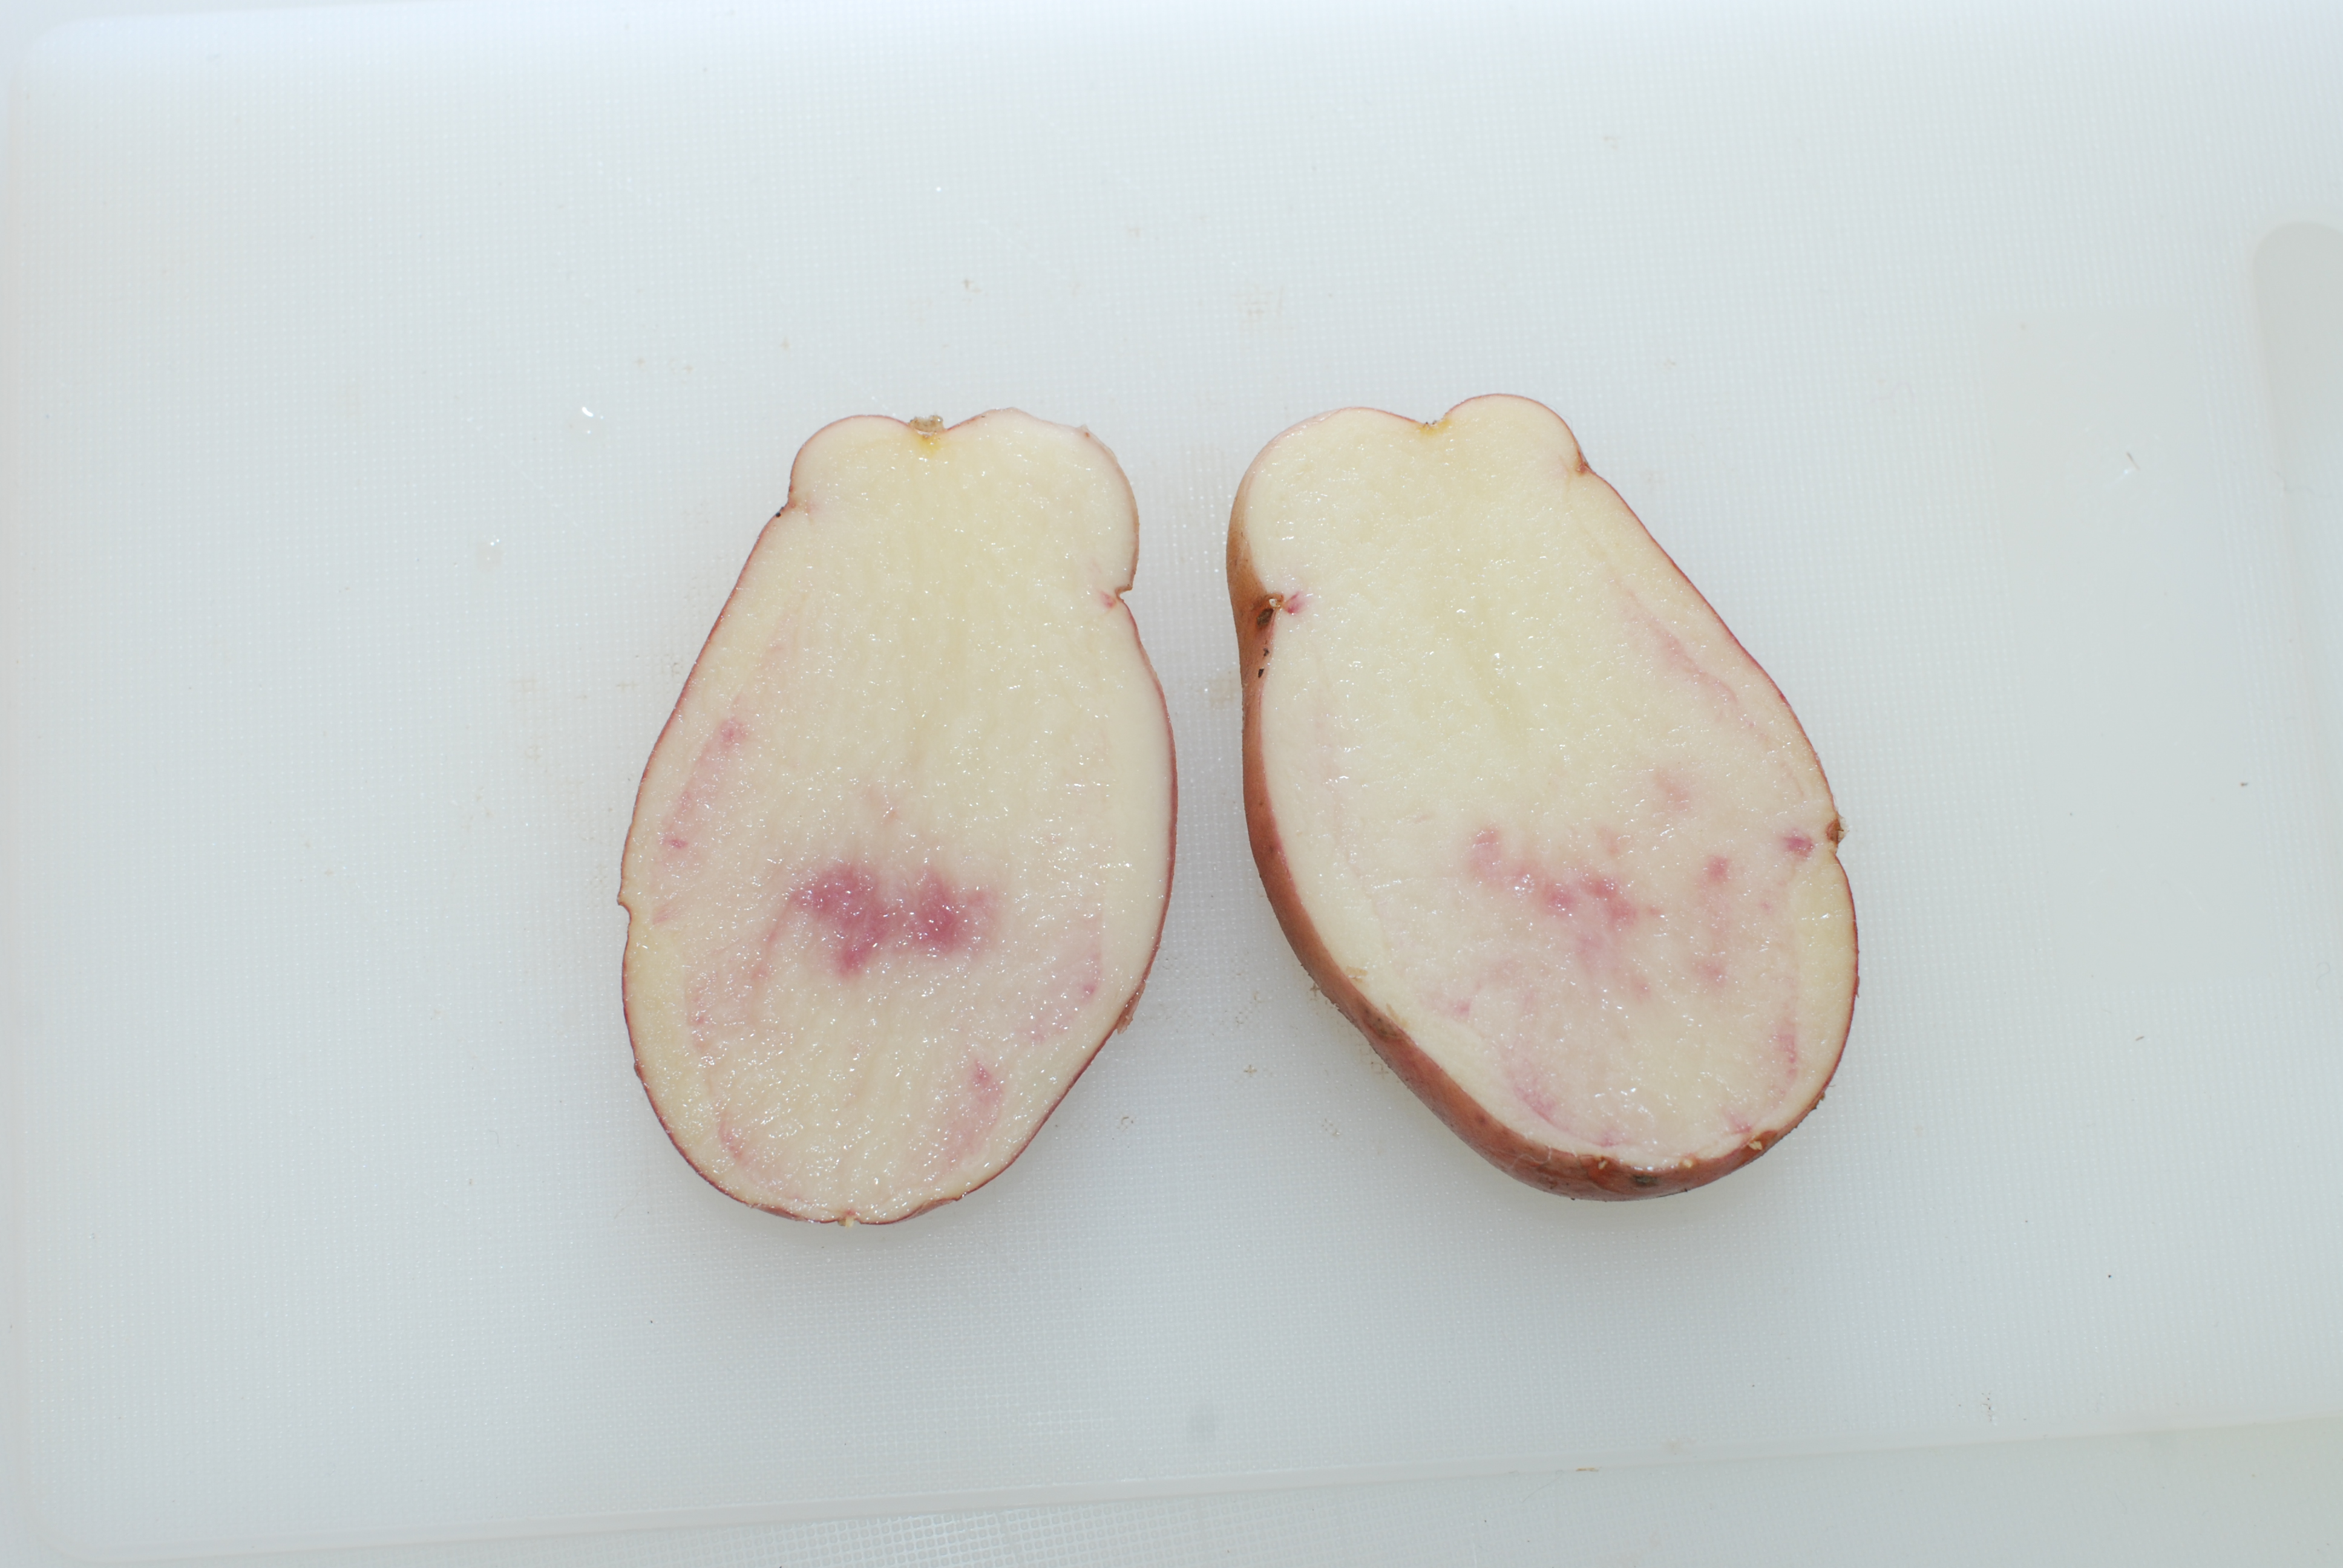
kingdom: Plantae
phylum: Tracheophyta
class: Magnoliopsida
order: Solanales
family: Solanaceae
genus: Solanum
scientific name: Solanum tuberosum
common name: Potato
